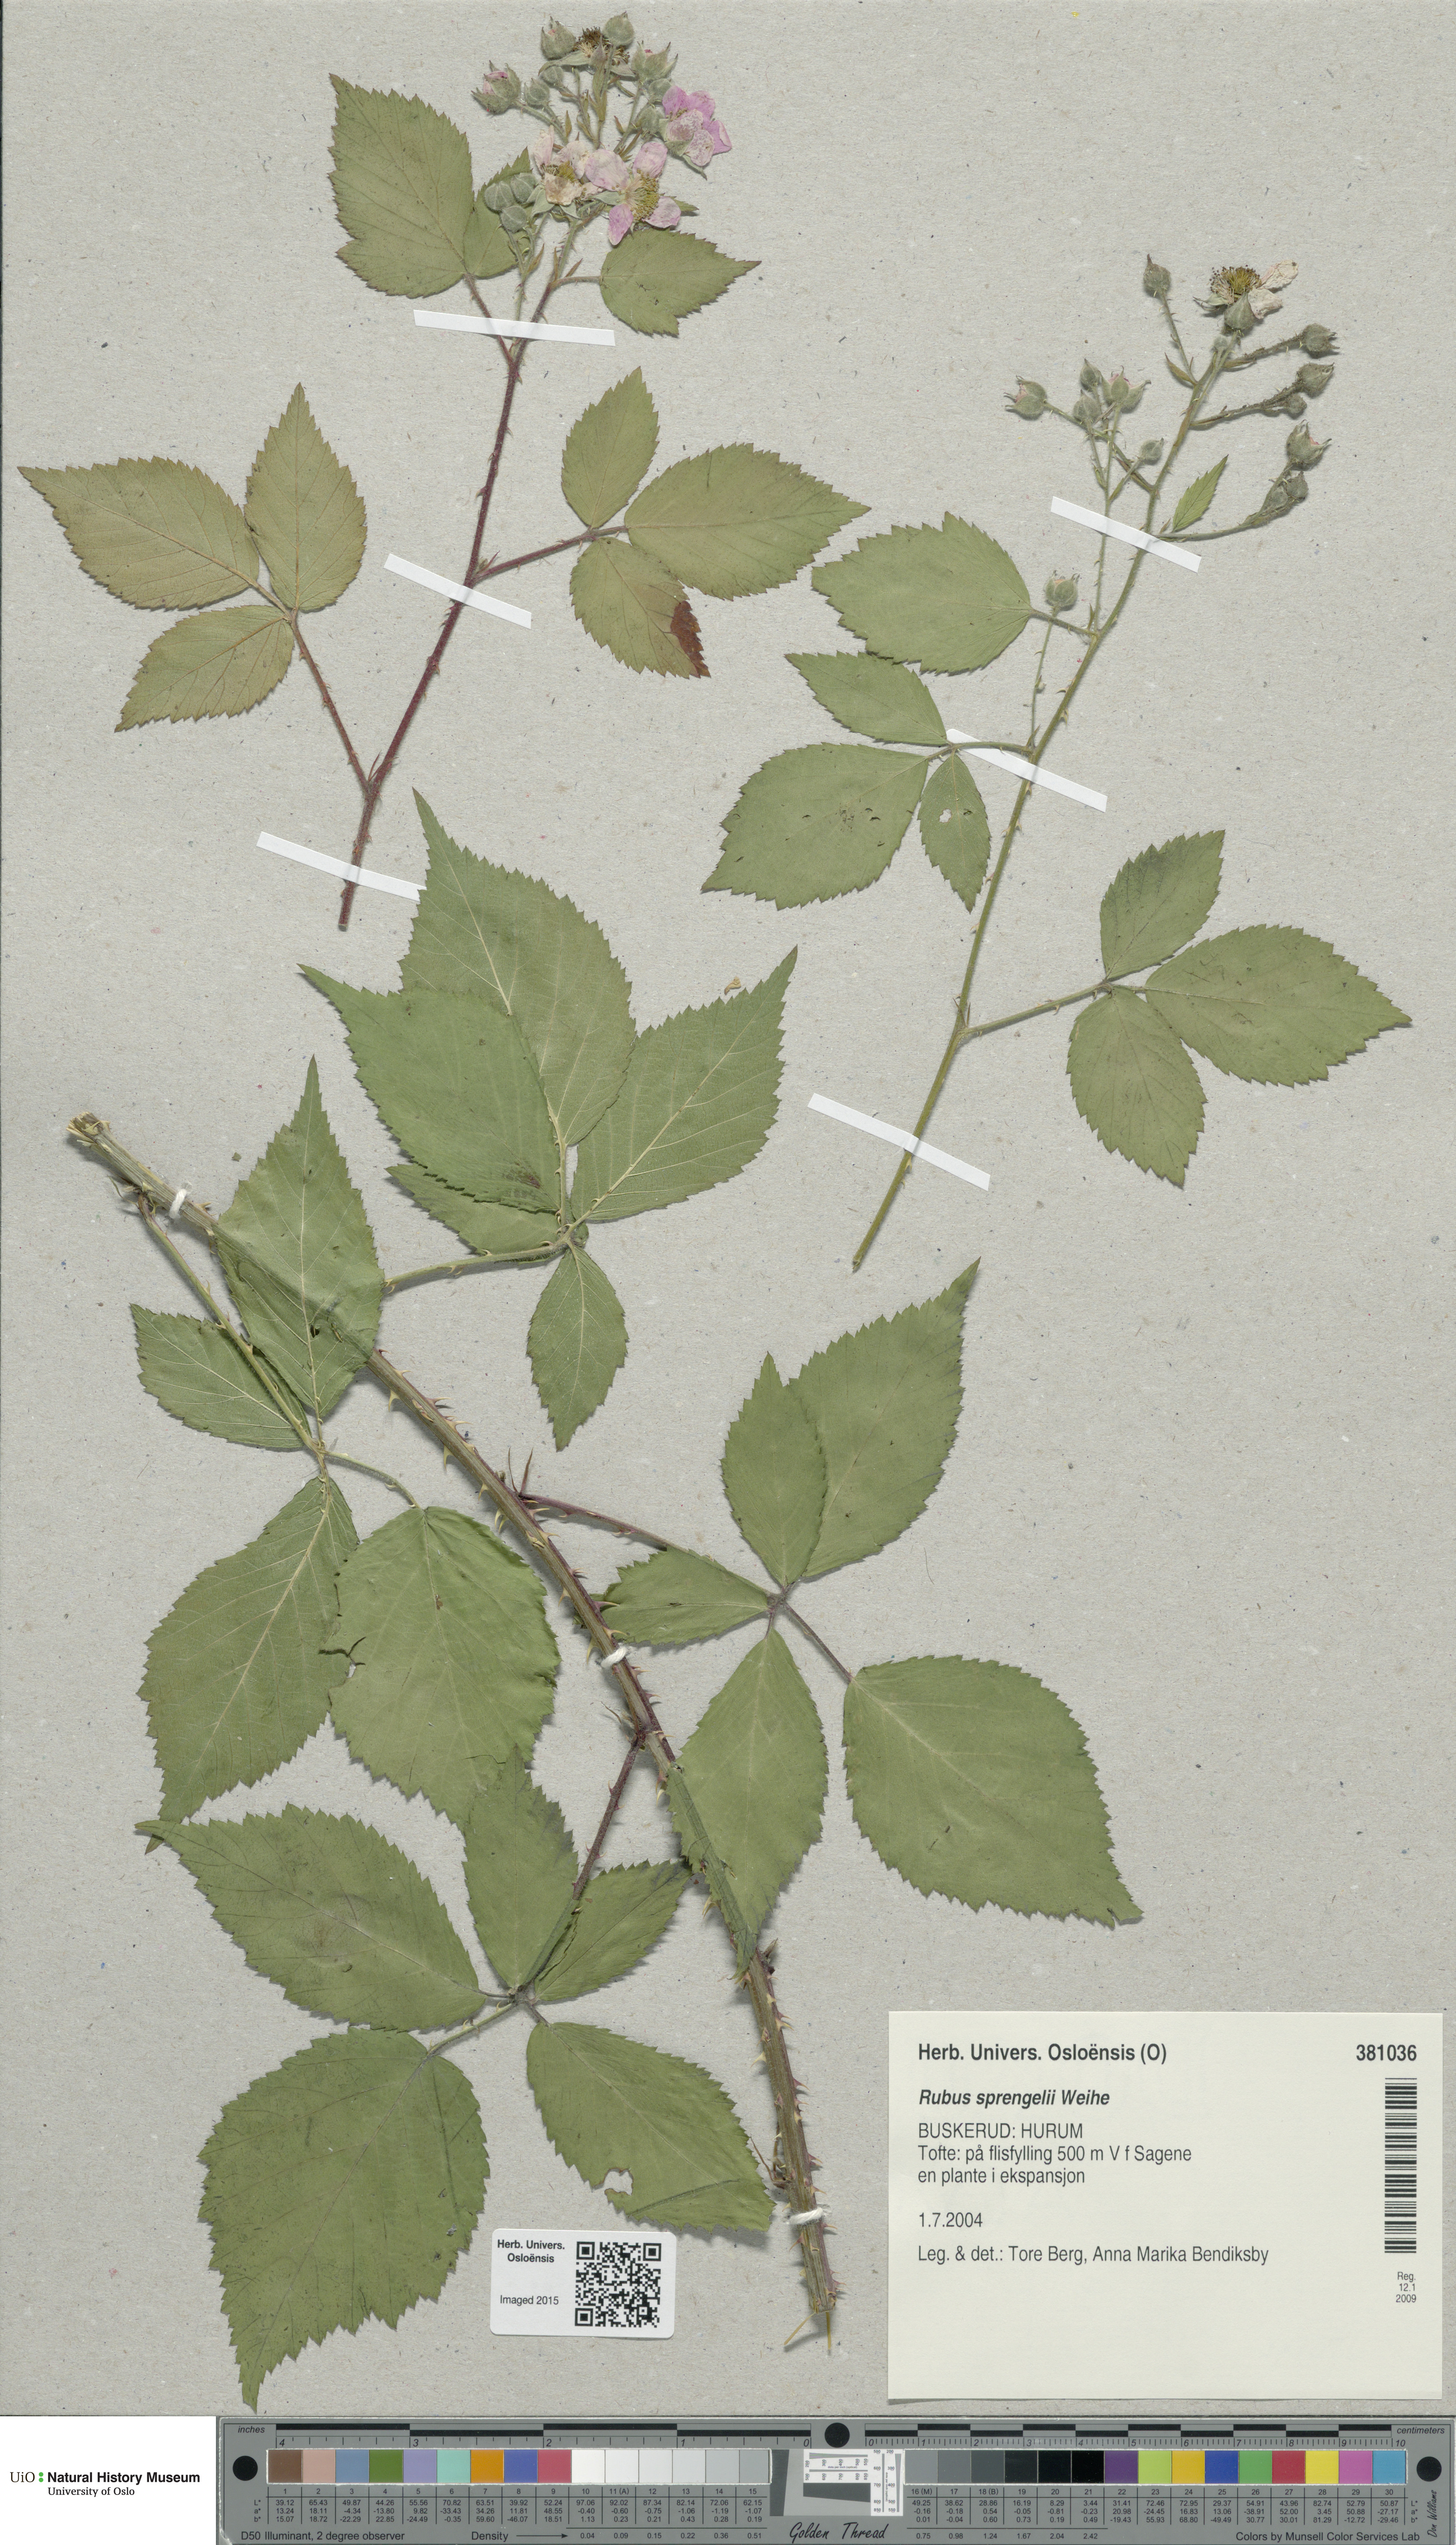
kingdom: Plantae
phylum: Tracheophyta
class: Magnoliopsida
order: Rosales
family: Rosaceae
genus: Rubus
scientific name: Rubus sprengelii
